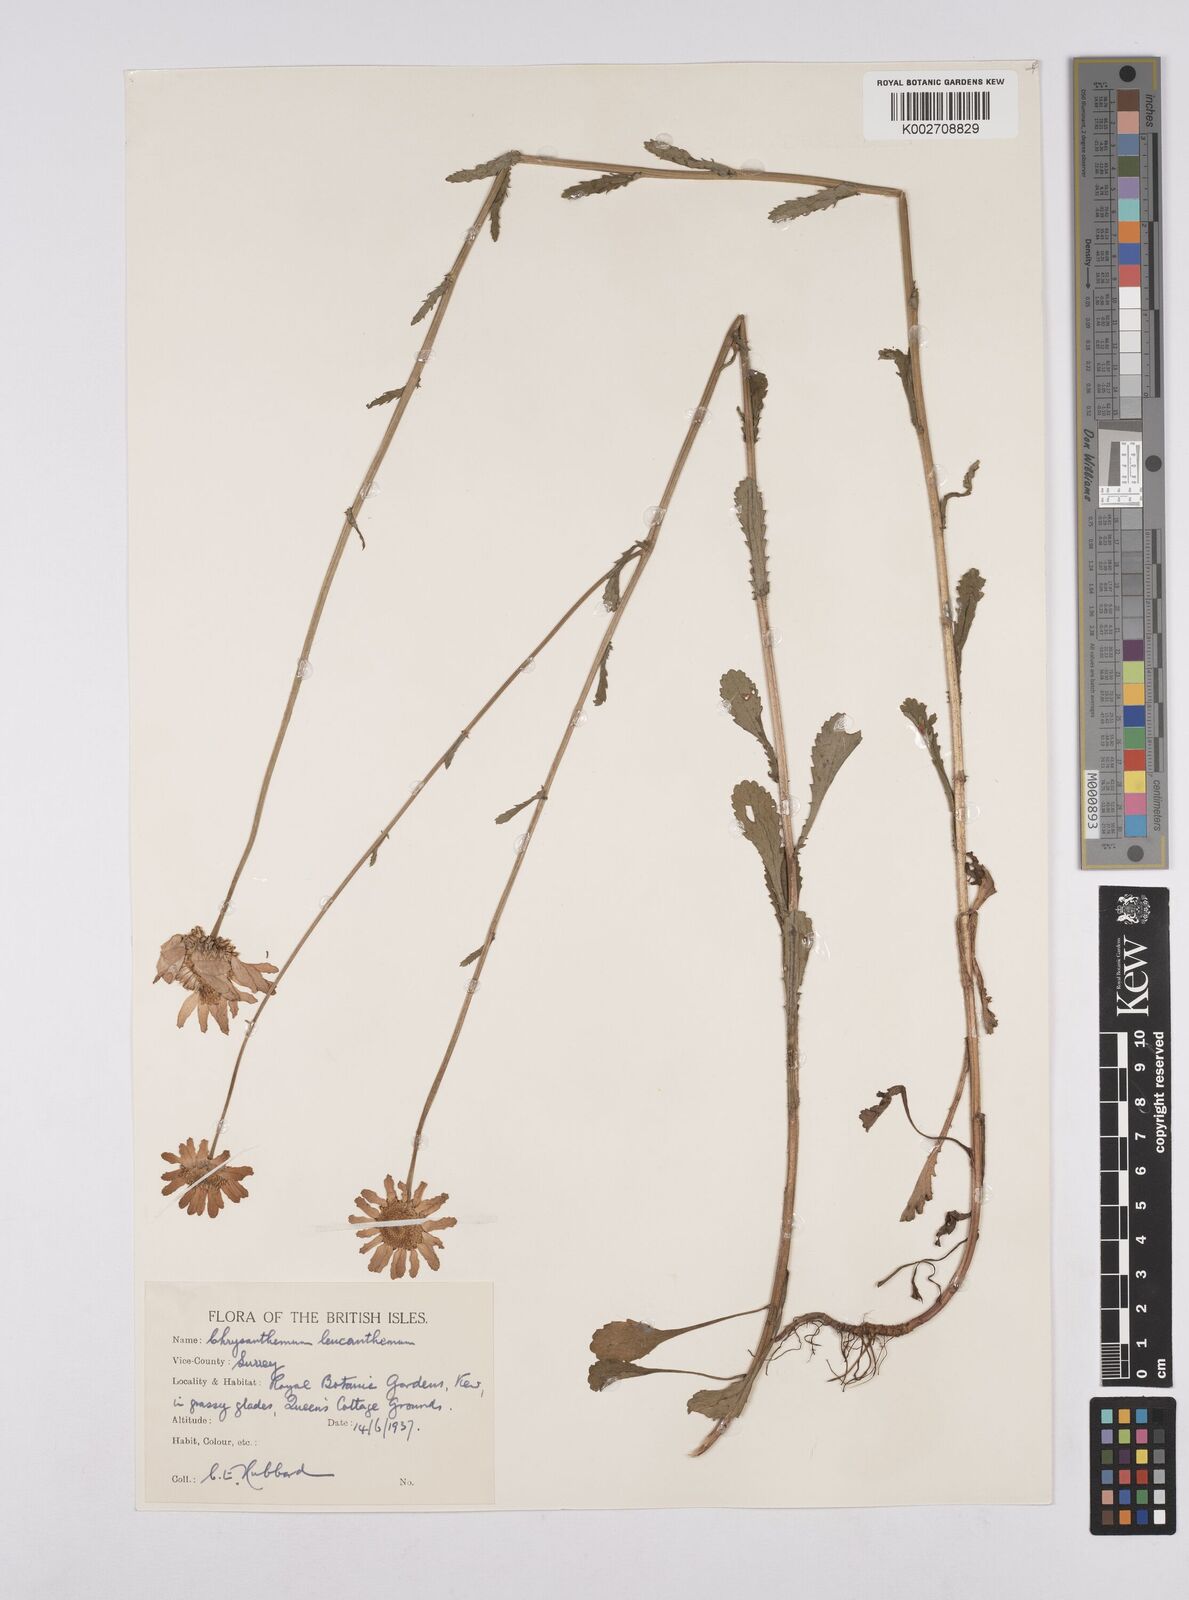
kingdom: Plantae
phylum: Tracheophyta
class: Magnoliopsida
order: Asterales
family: Asteraceae
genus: Leucanthemum
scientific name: Leucanthemum
